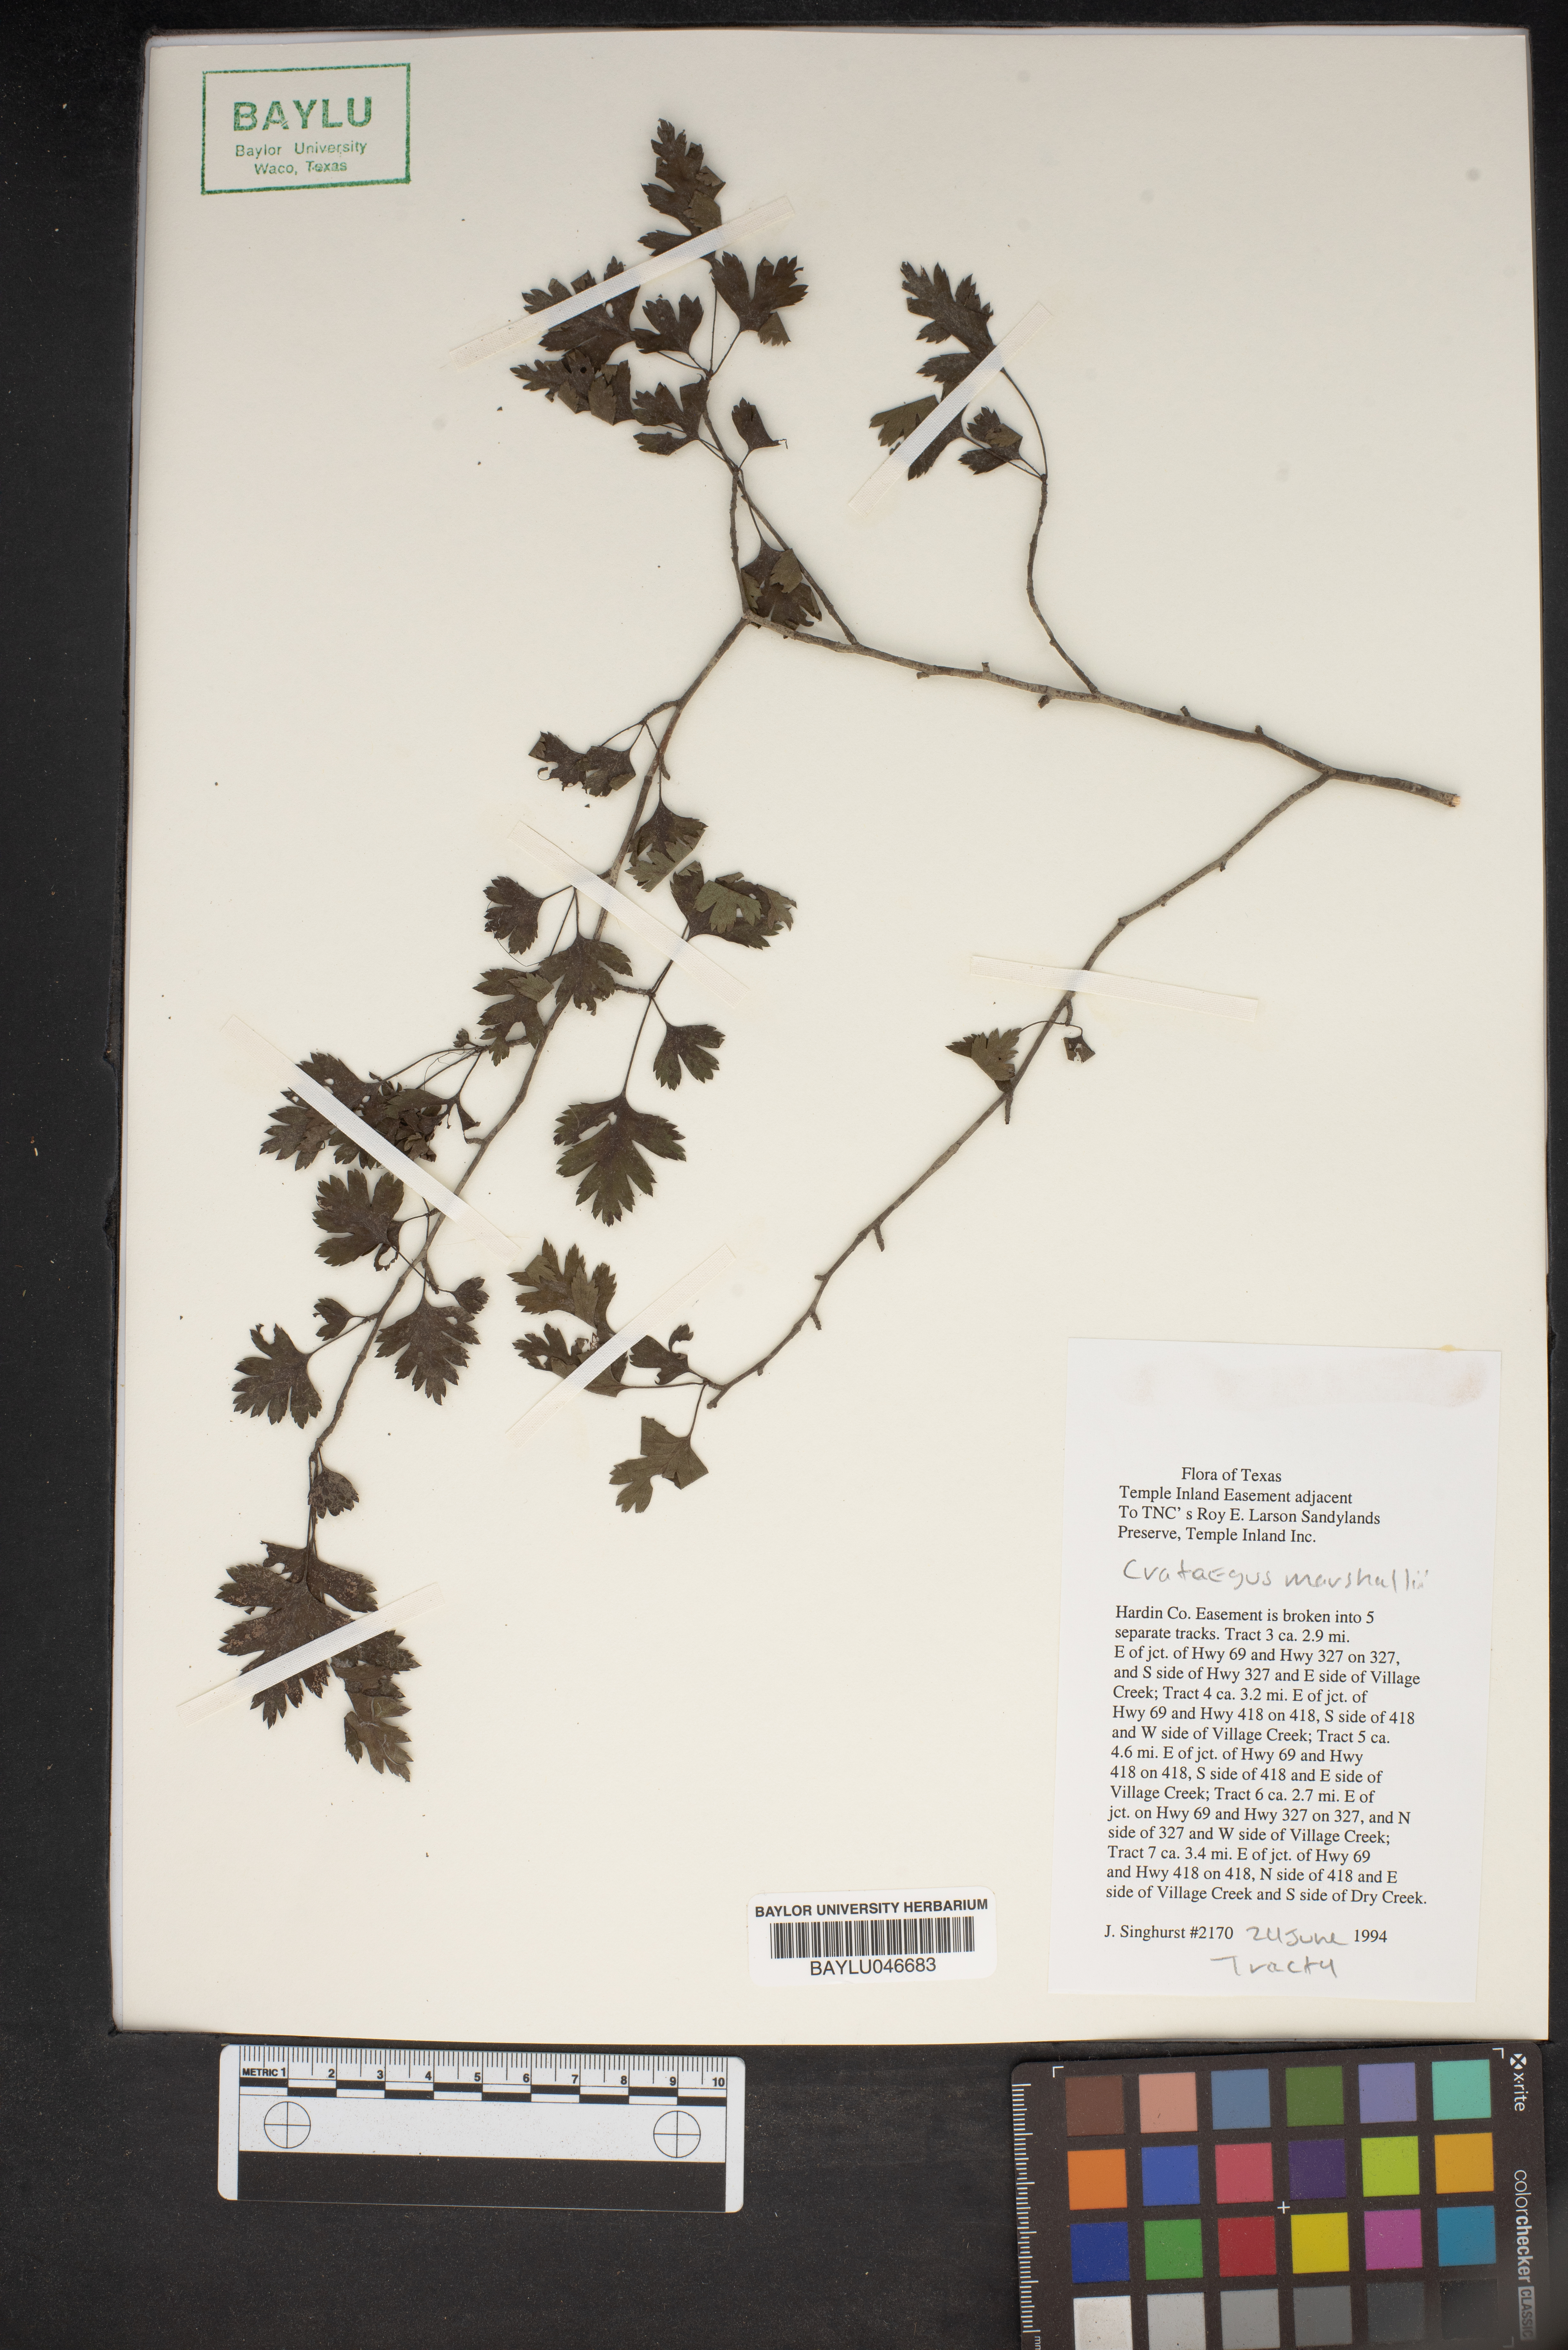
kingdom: Plantae
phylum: Tracheophyta
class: Magnoliopsida
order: Rosales
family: Rosaceae
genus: Crataegus
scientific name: Crataegus marshallii
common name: Parsley-hawthorn
